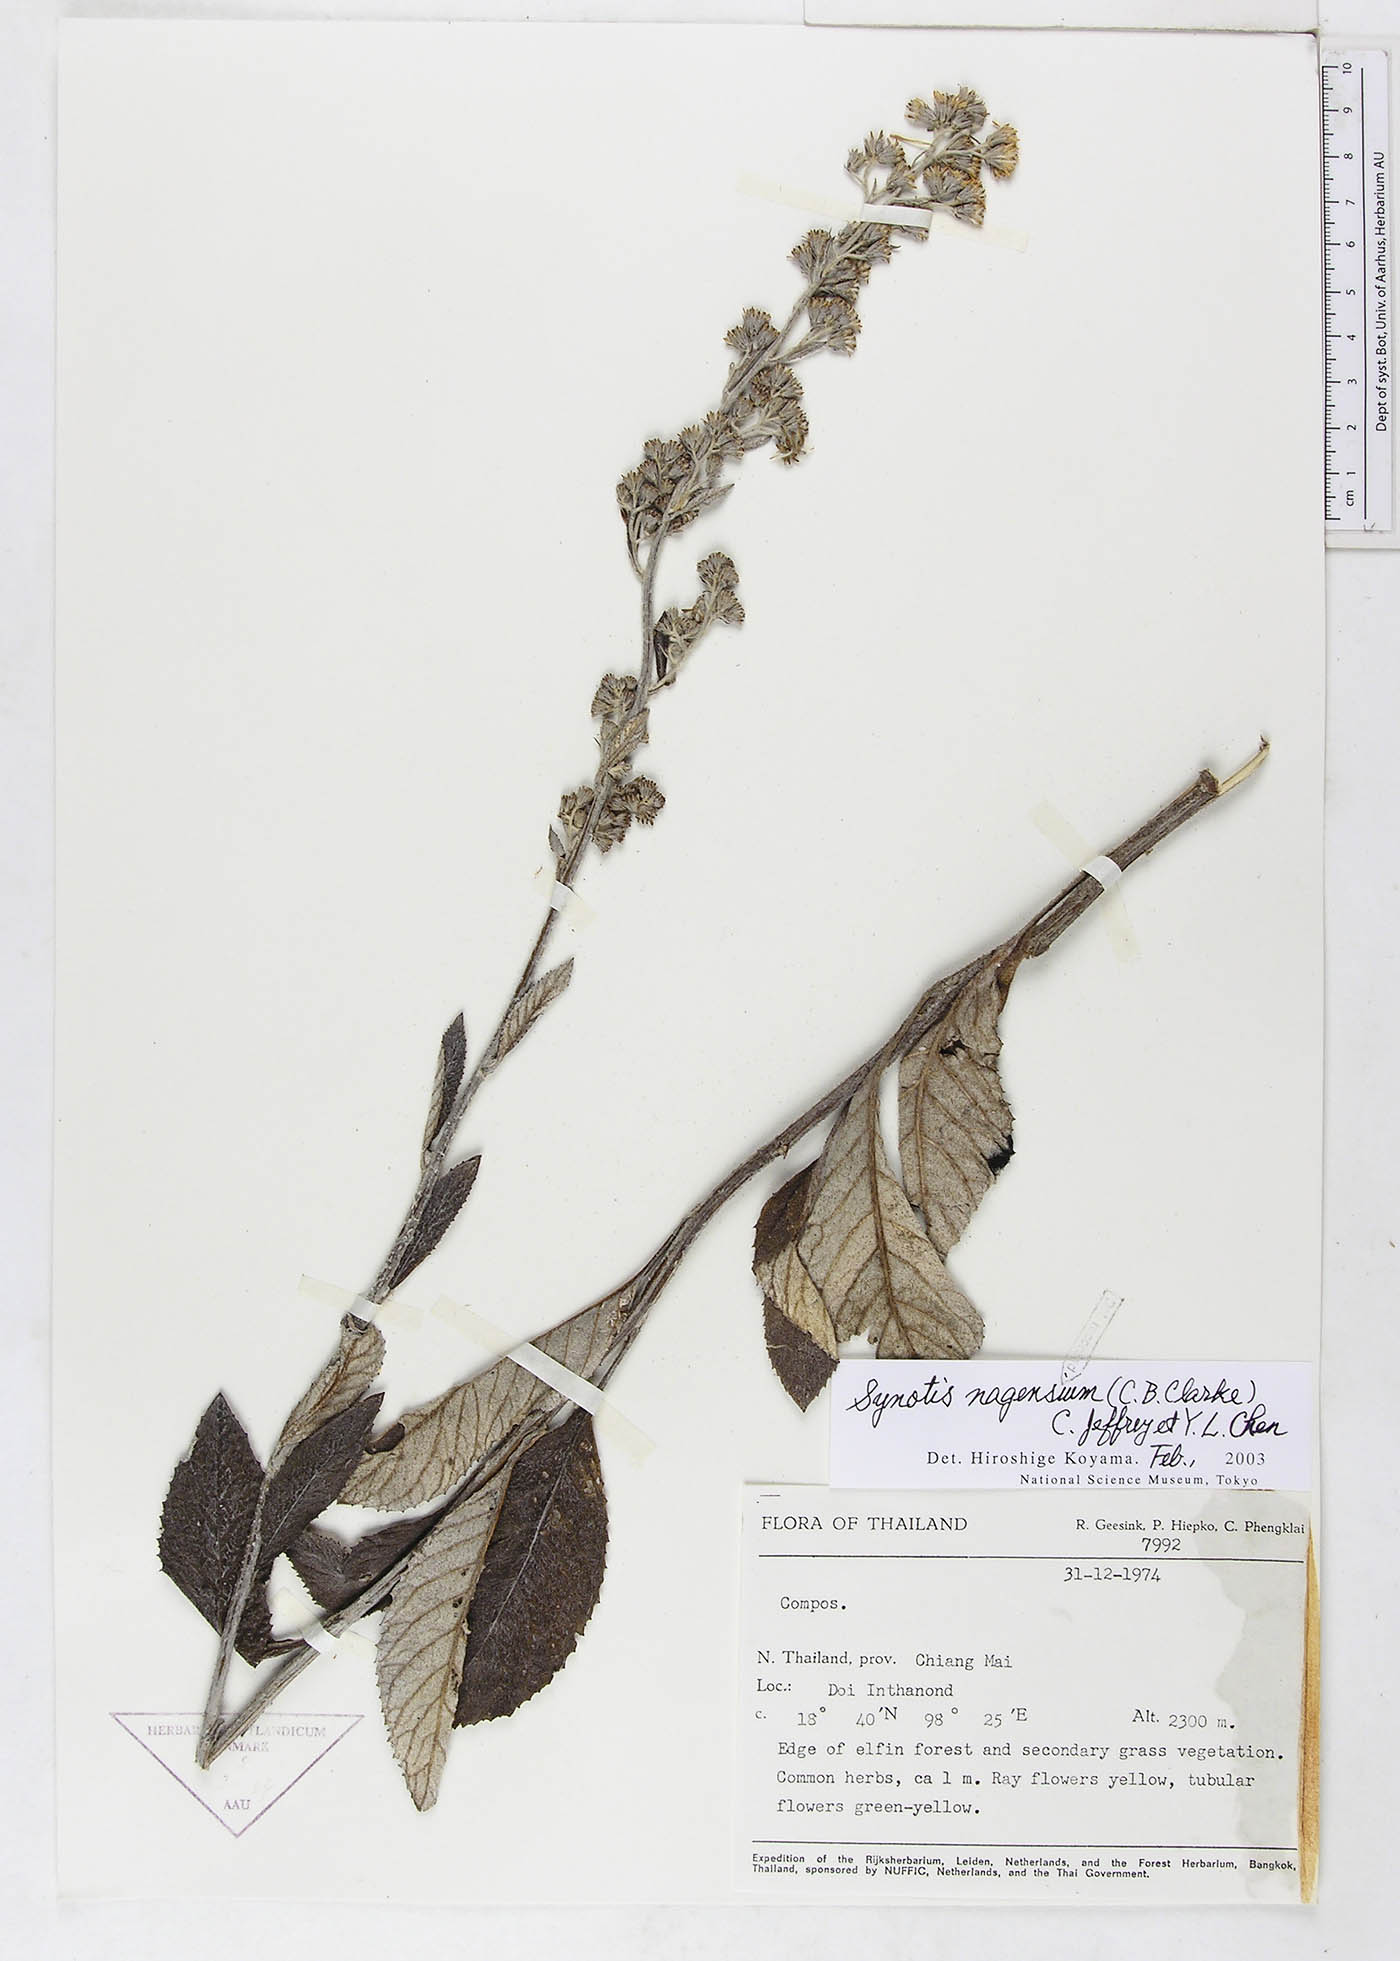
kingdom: Plantae
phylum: Tracheophyta
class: Magnoliopsida
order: Asterales
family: Asteraceae
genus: Synotis
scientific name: Synotis nagensium
